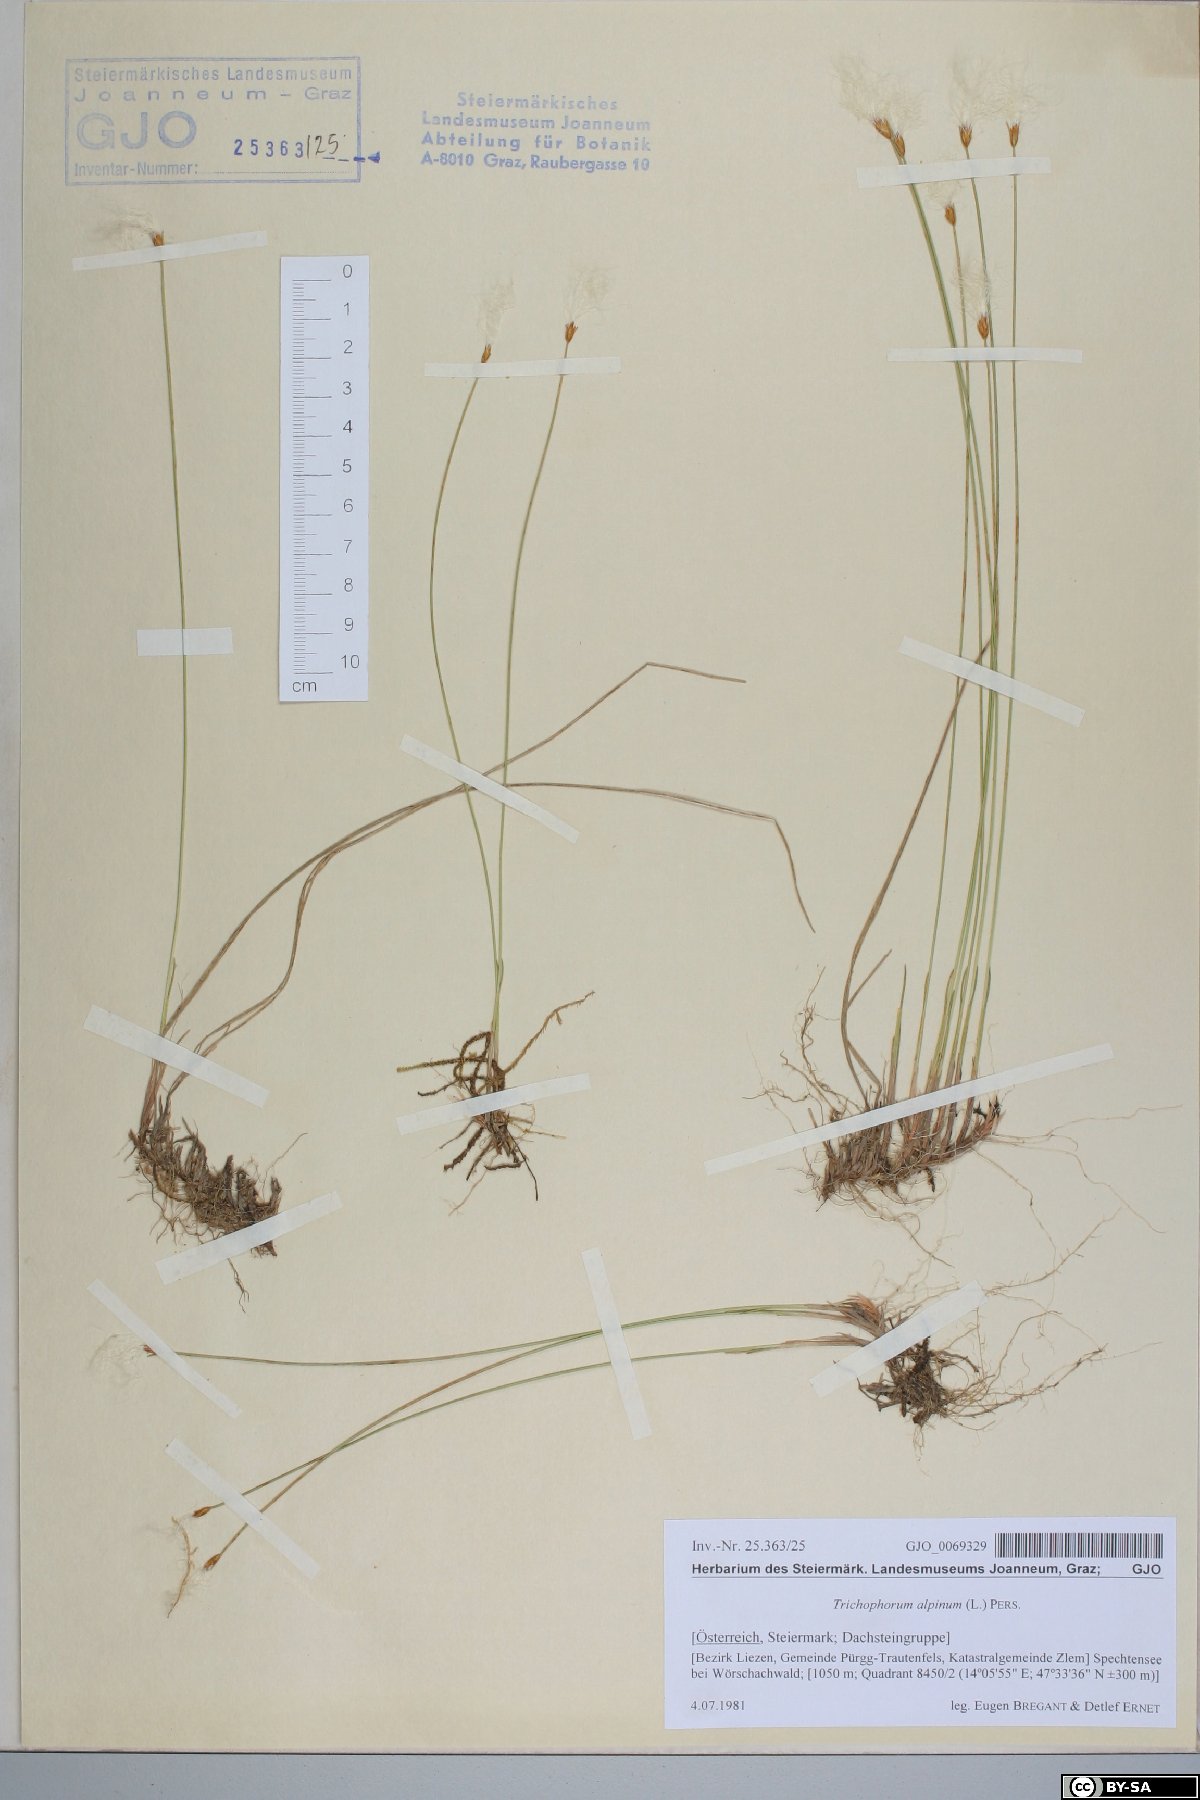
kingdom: Plantae
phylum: Tracheophyta
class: Liliopsida
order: Poales
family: Cyperaceae
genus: Trichophorum
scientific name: Trichophorum alpinum
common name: Alpine bulrush
